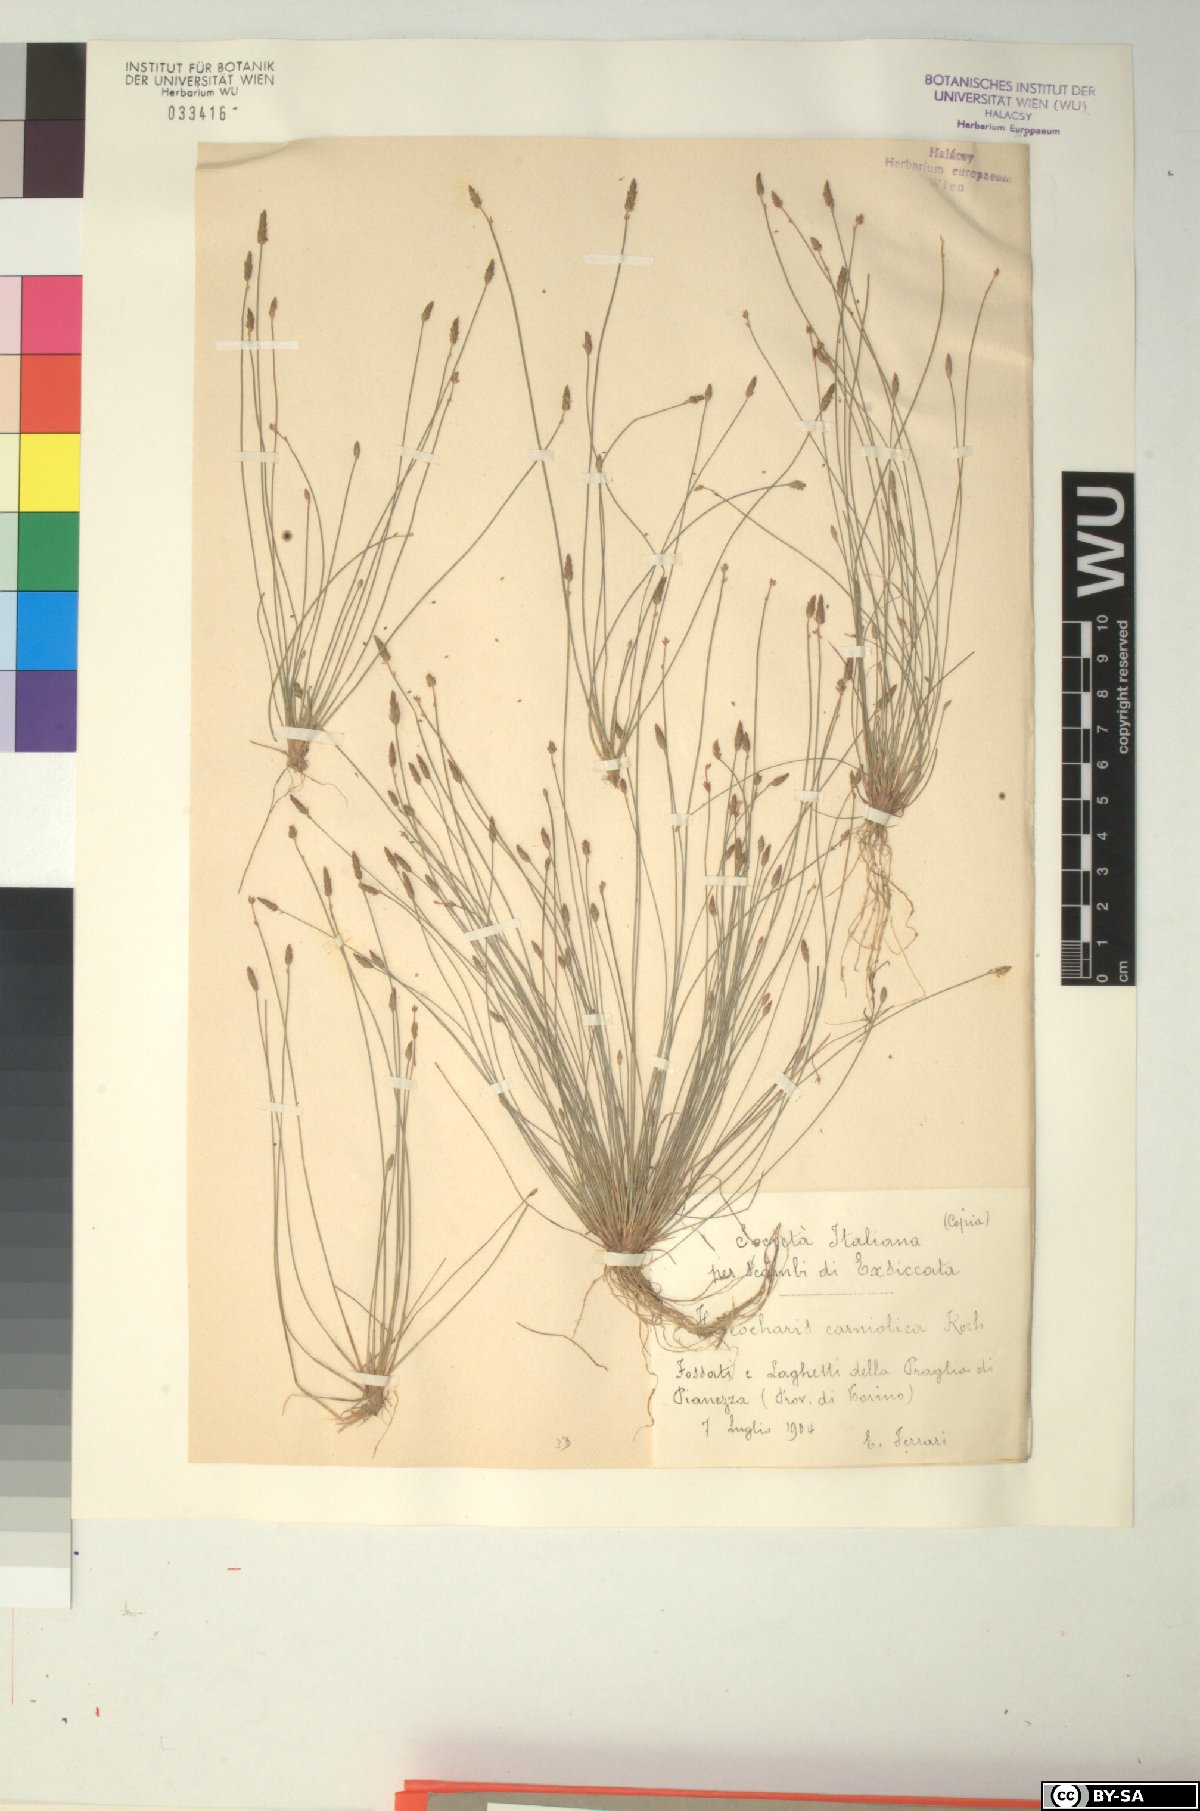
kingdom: Plantae
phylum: Tracheophyta
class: Liliopsida
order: Poales
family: Cyperaceae
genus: Eleocharis
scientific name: Eleocharis carniolica
